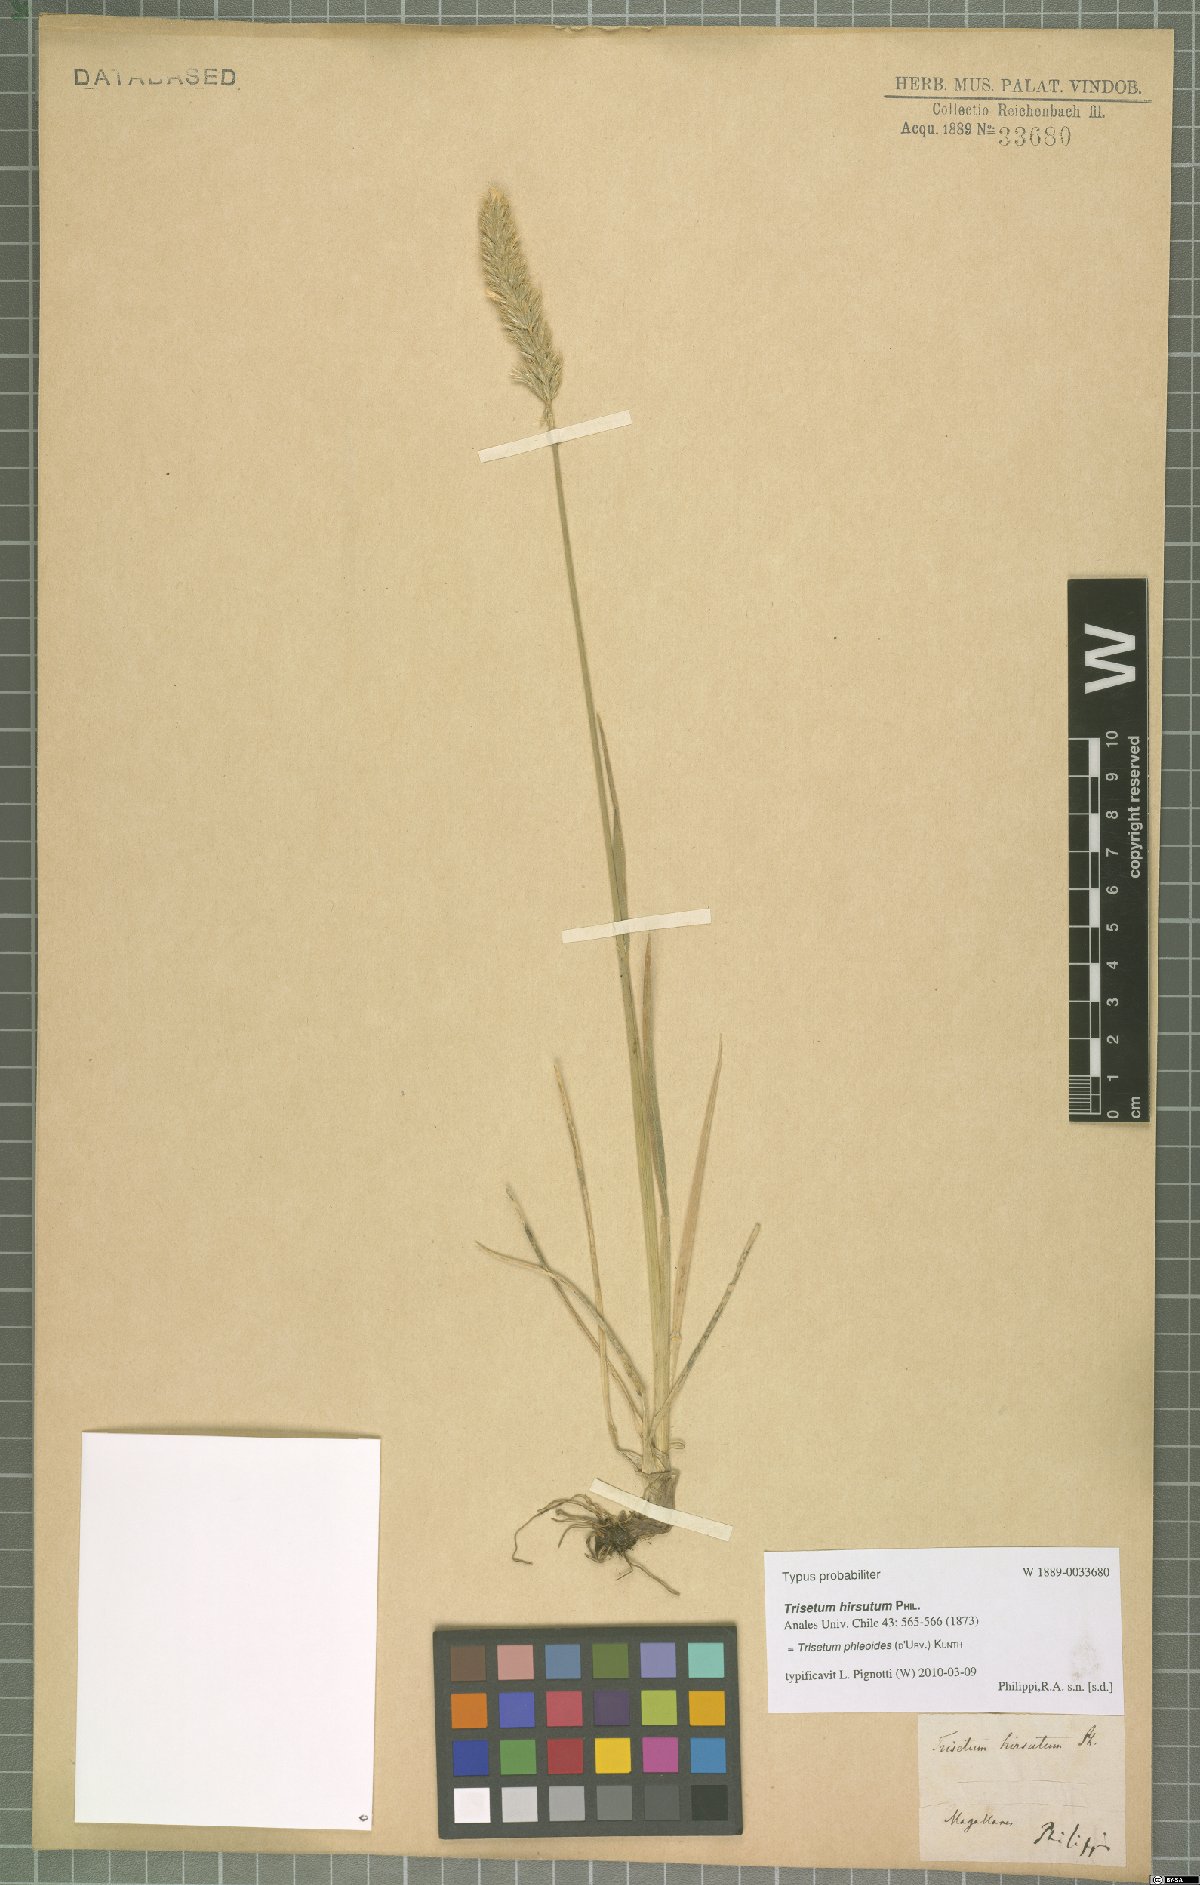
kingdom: Plantae
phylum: Tracheophyta
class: Liliopsida
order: Poales
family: Poaceae
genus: Koeleria
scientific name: Koeleria spicata
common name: Mountain trisetum
